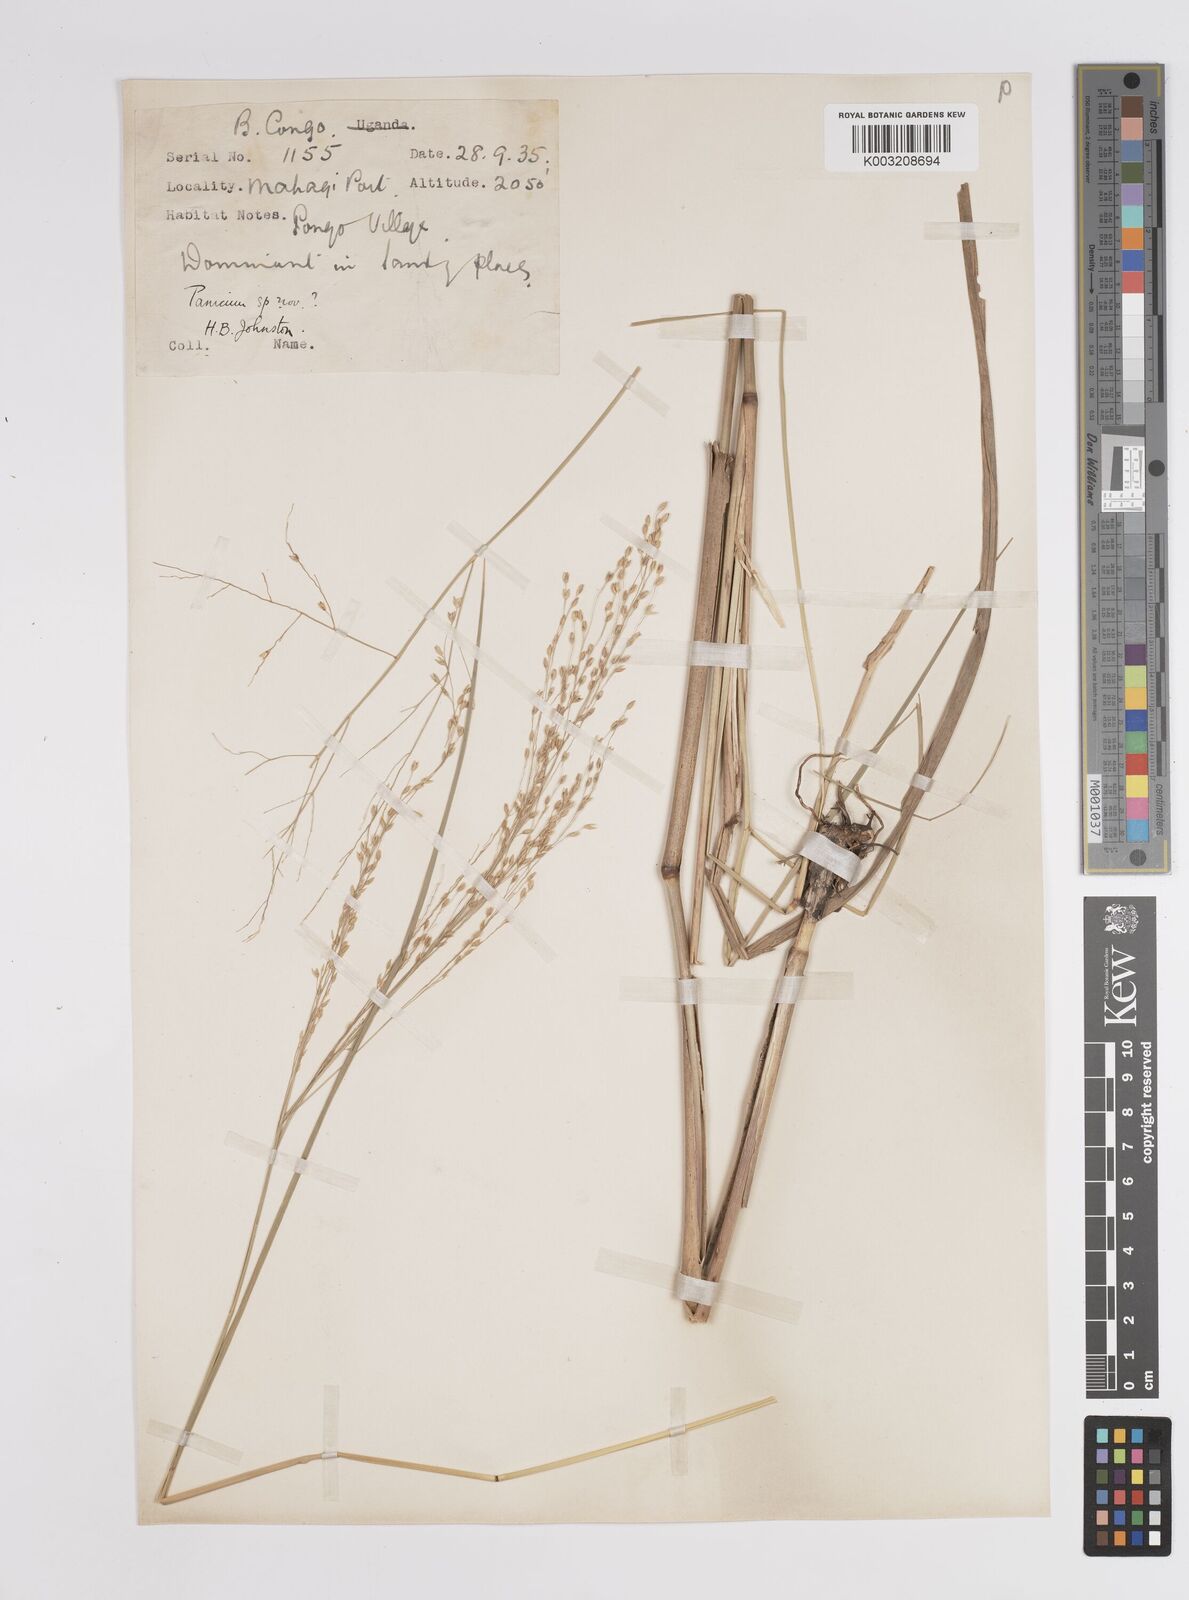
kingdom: Plantae
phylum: Tracheophyta
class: Liliopsida
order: Poales
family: Poaceae
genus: Panicum
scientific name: Panicum phragmitoides
